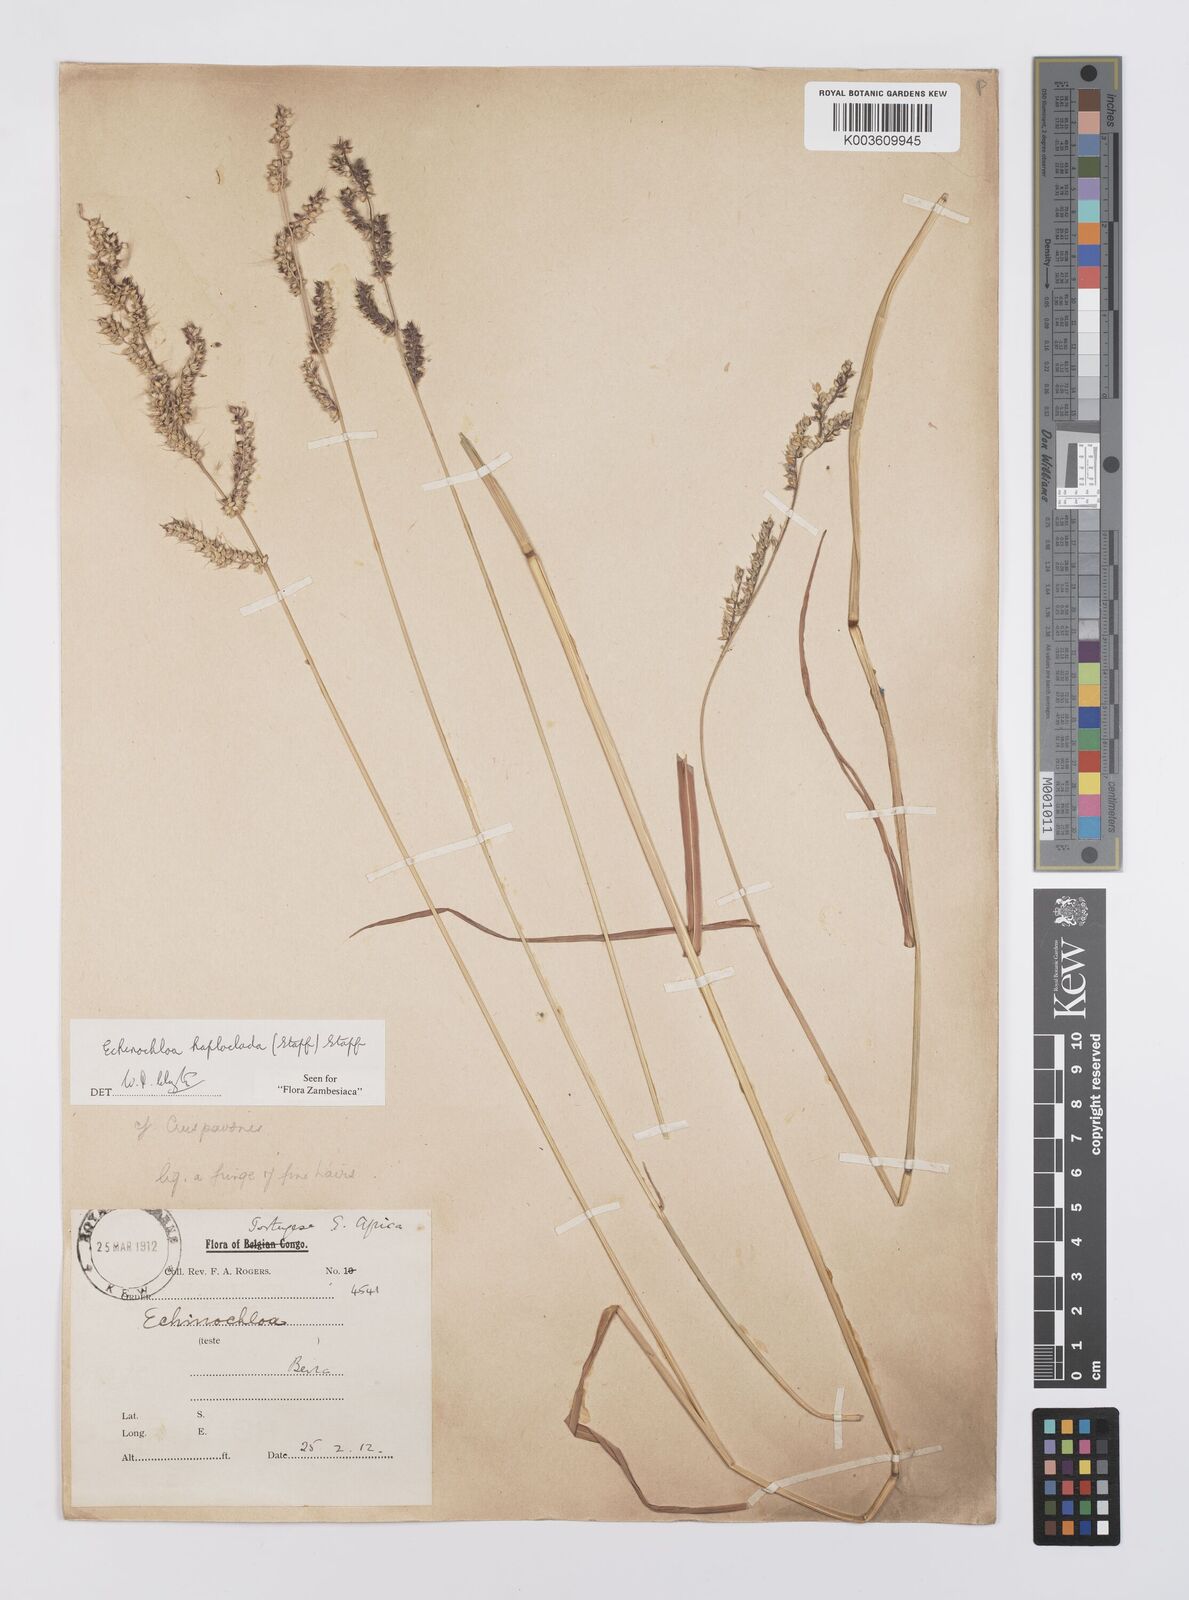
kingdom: Plantae
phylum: Tracheophyta
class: Liliopsida
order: Poales
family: Poaceae
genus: Echinochloa
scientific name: Echinochloa haploclada
